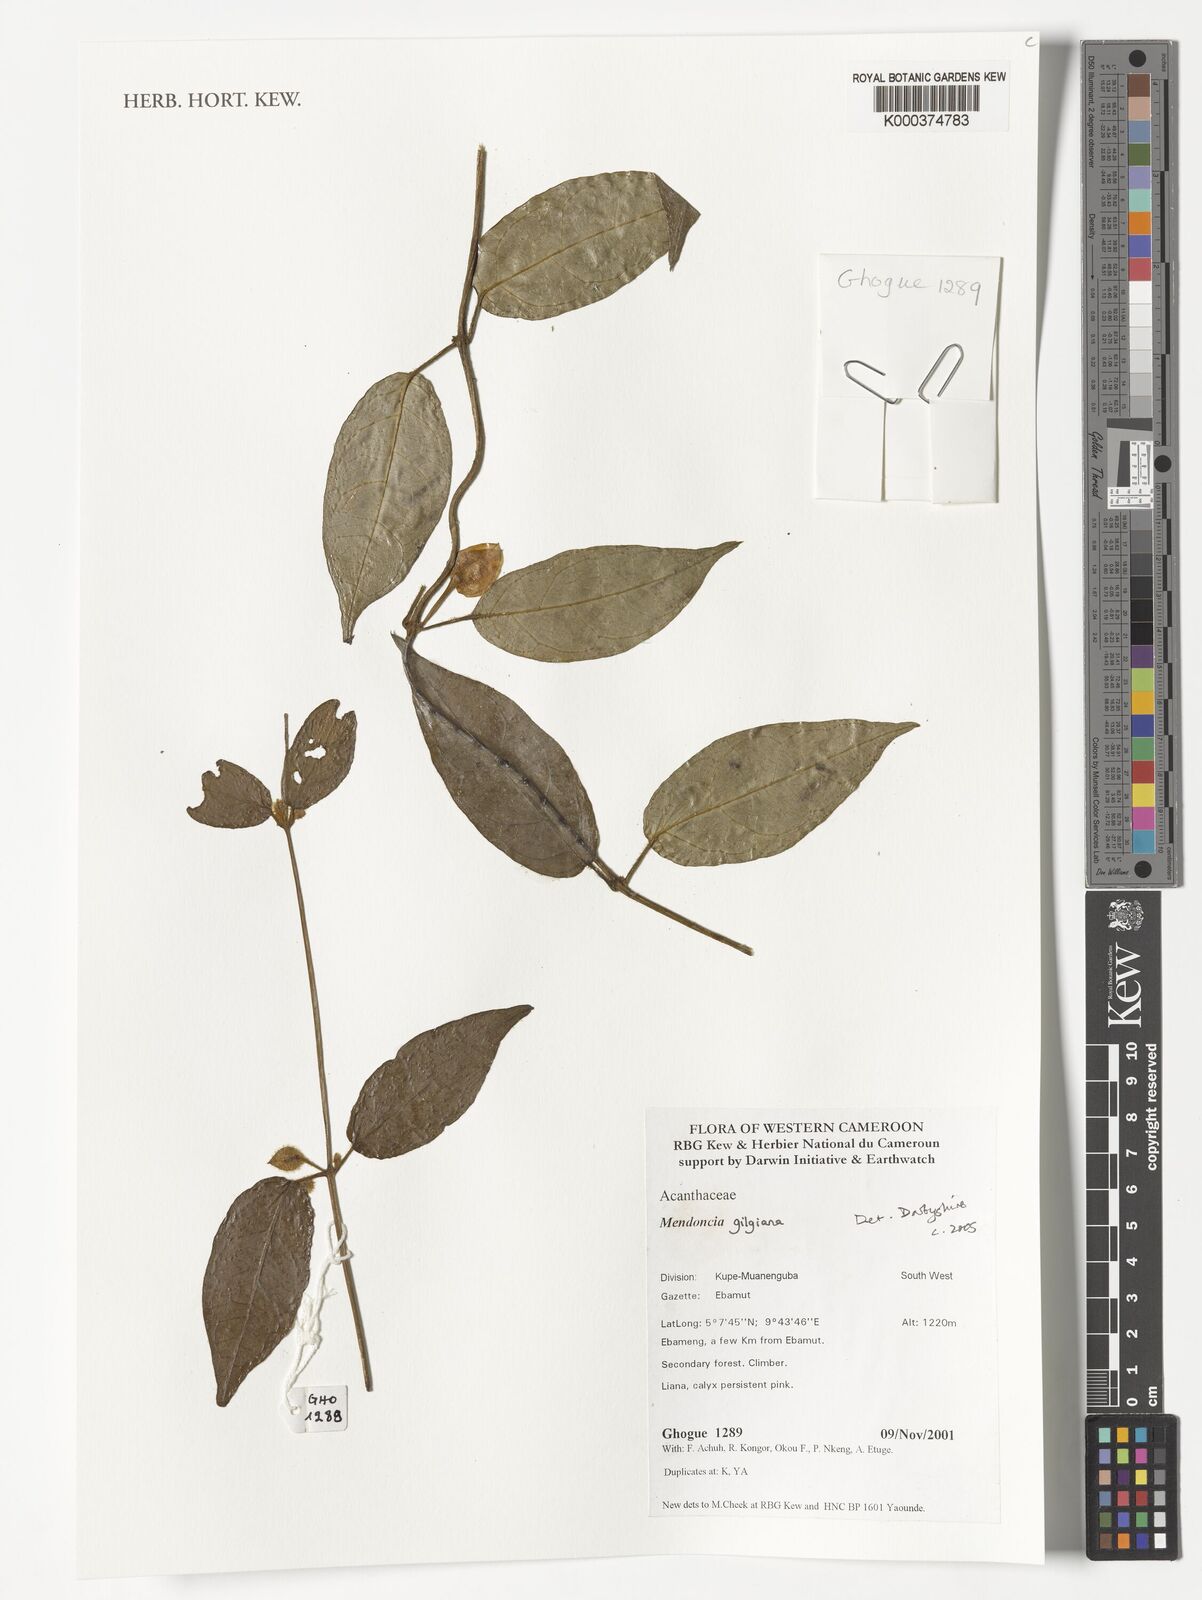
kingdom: Plantae
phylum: Tracheophyta
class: Magnoliopsida
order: Lamiales
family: Acanthaceae
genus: Mendoncia
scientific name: Mendoncia gilgiana
